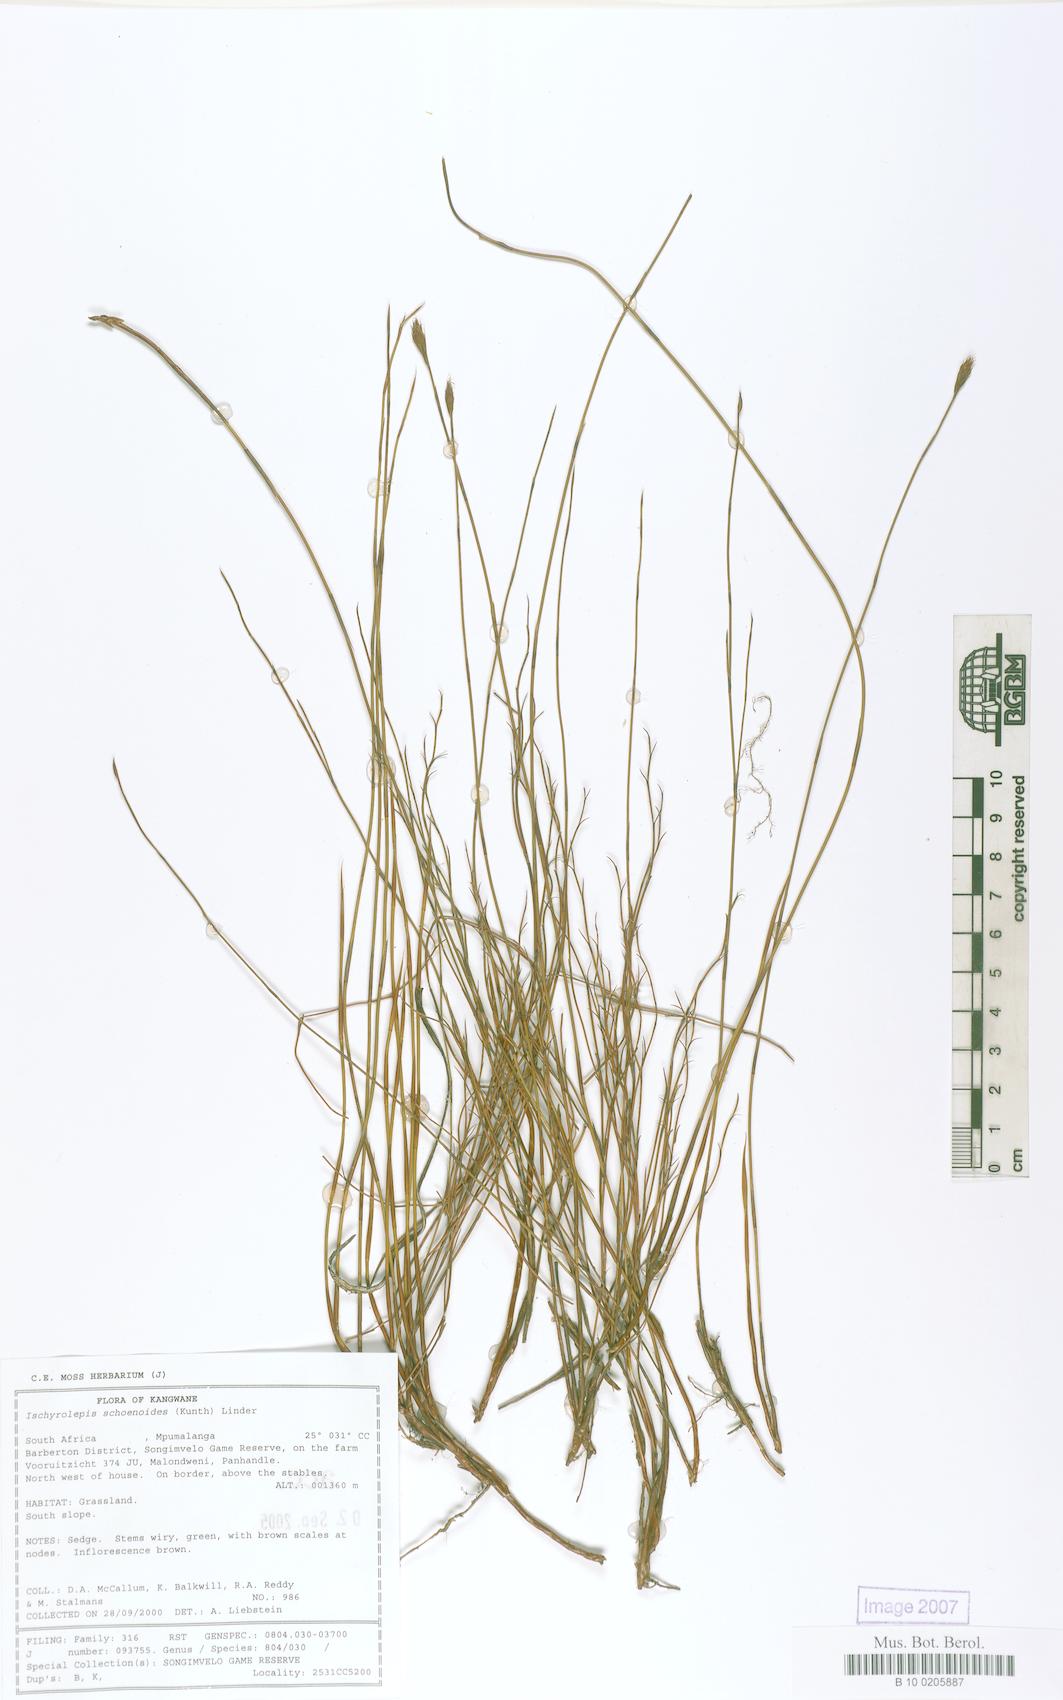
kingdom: Plantae
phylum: Tracheophyta
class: Liliopsida
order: Poales
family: Restionaceae
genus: Restio
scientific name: Restio schoenoides
